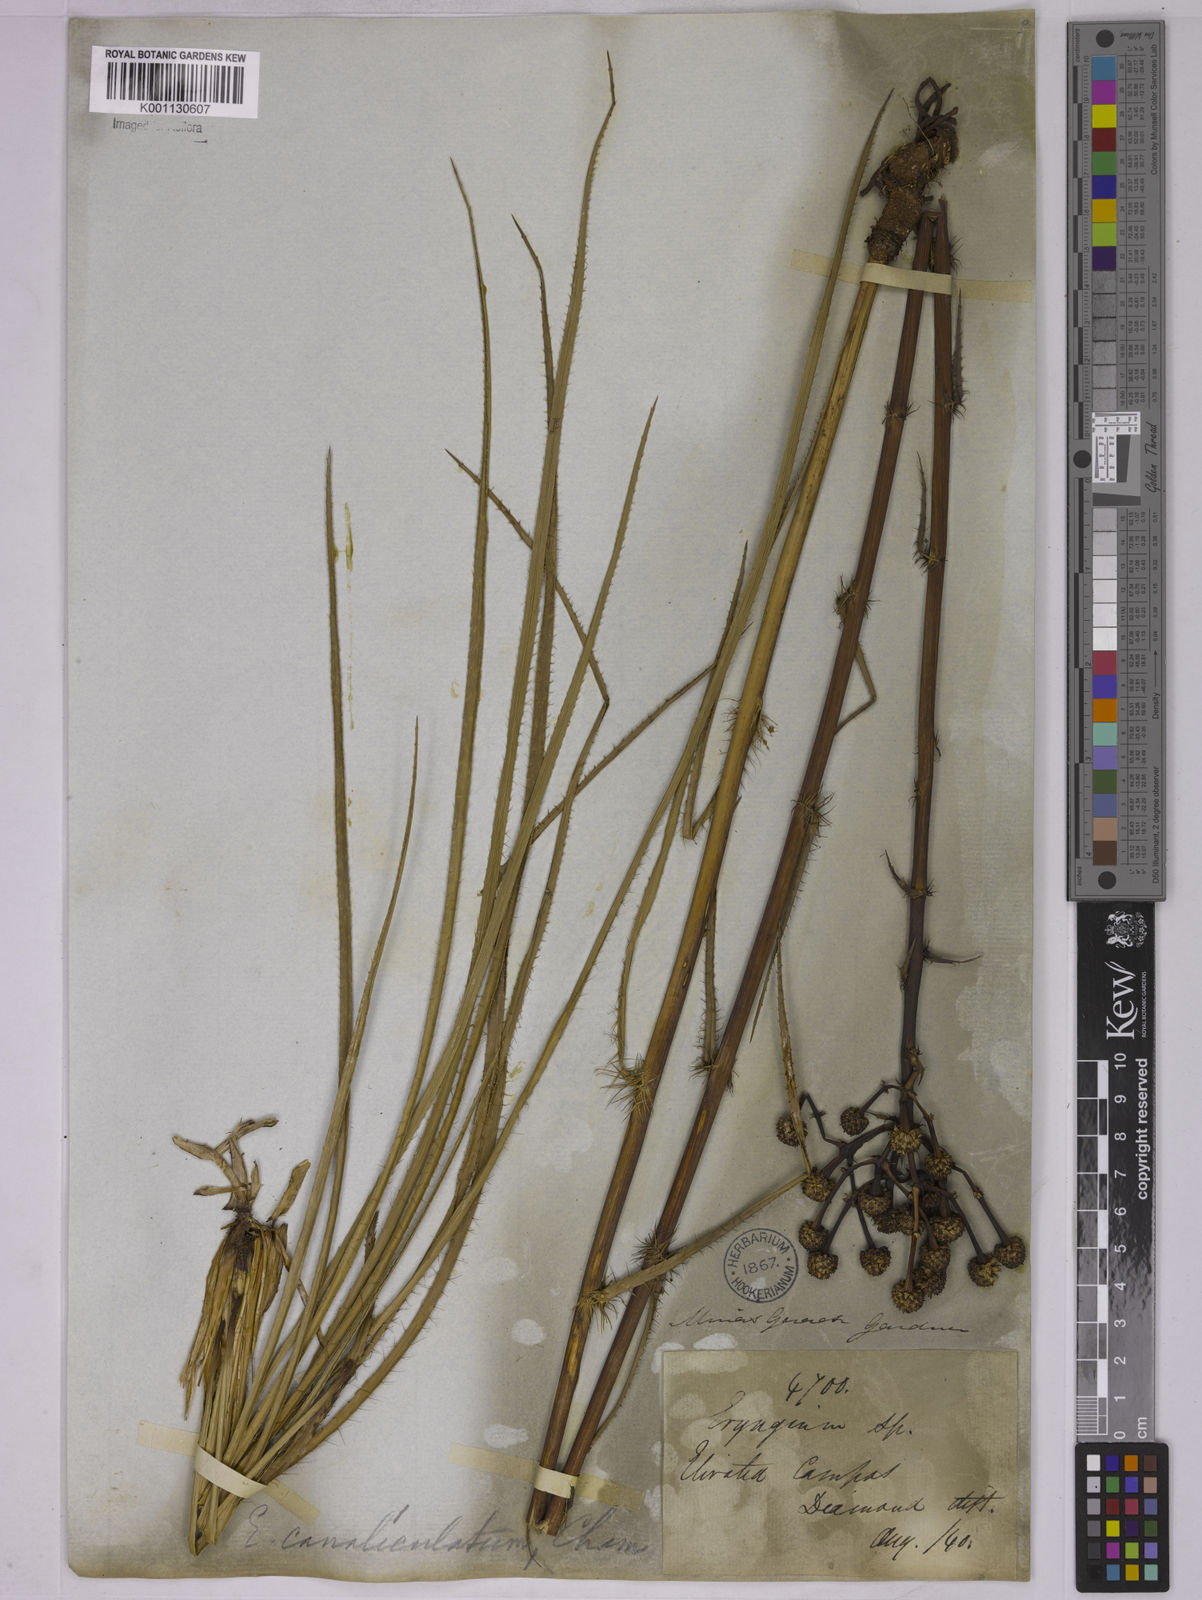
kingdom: Plantae
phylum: Tracheophyta
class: Magnoliopsida
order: Apiales
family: Apiaceae
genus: Eryngium
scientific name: Eryngium canaliculatum
